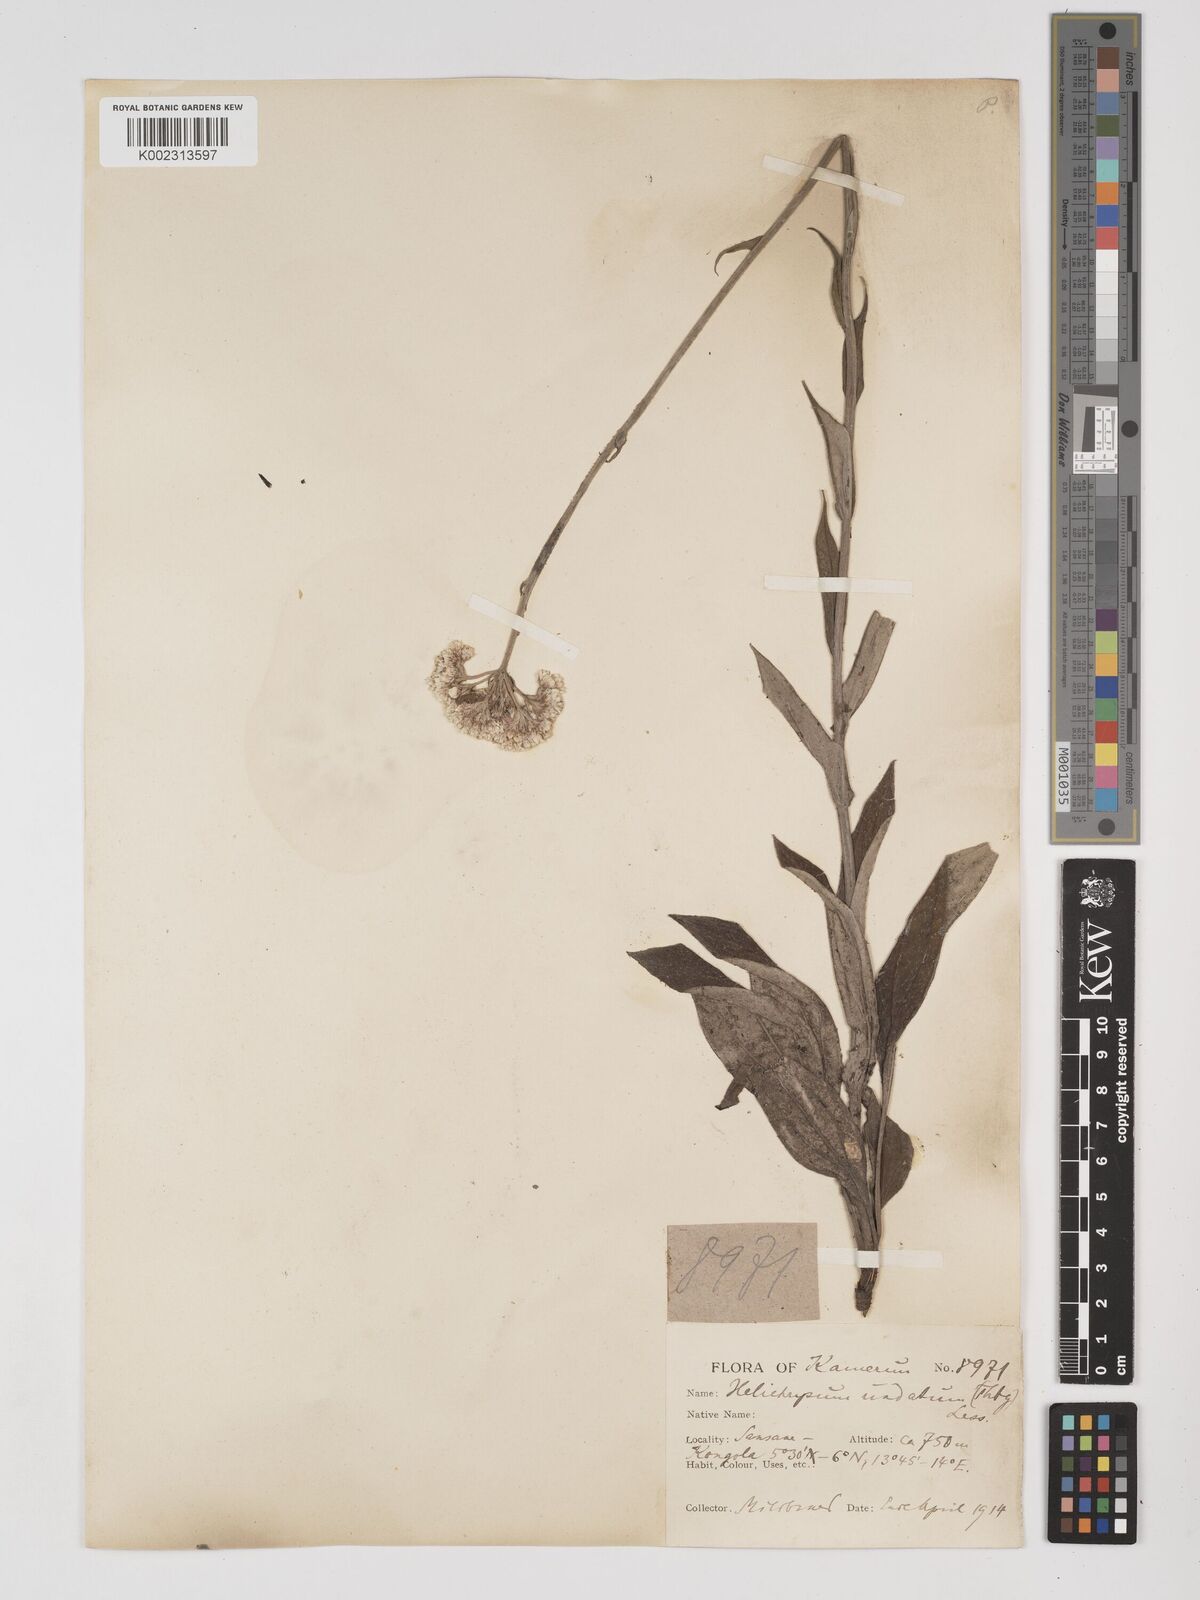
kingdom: Plantae
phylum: Tracheophyta
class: Magnoliopsida
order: Asterales
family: Asteraceae
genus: Helichrysum
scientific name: Helichrysum nudifolium
